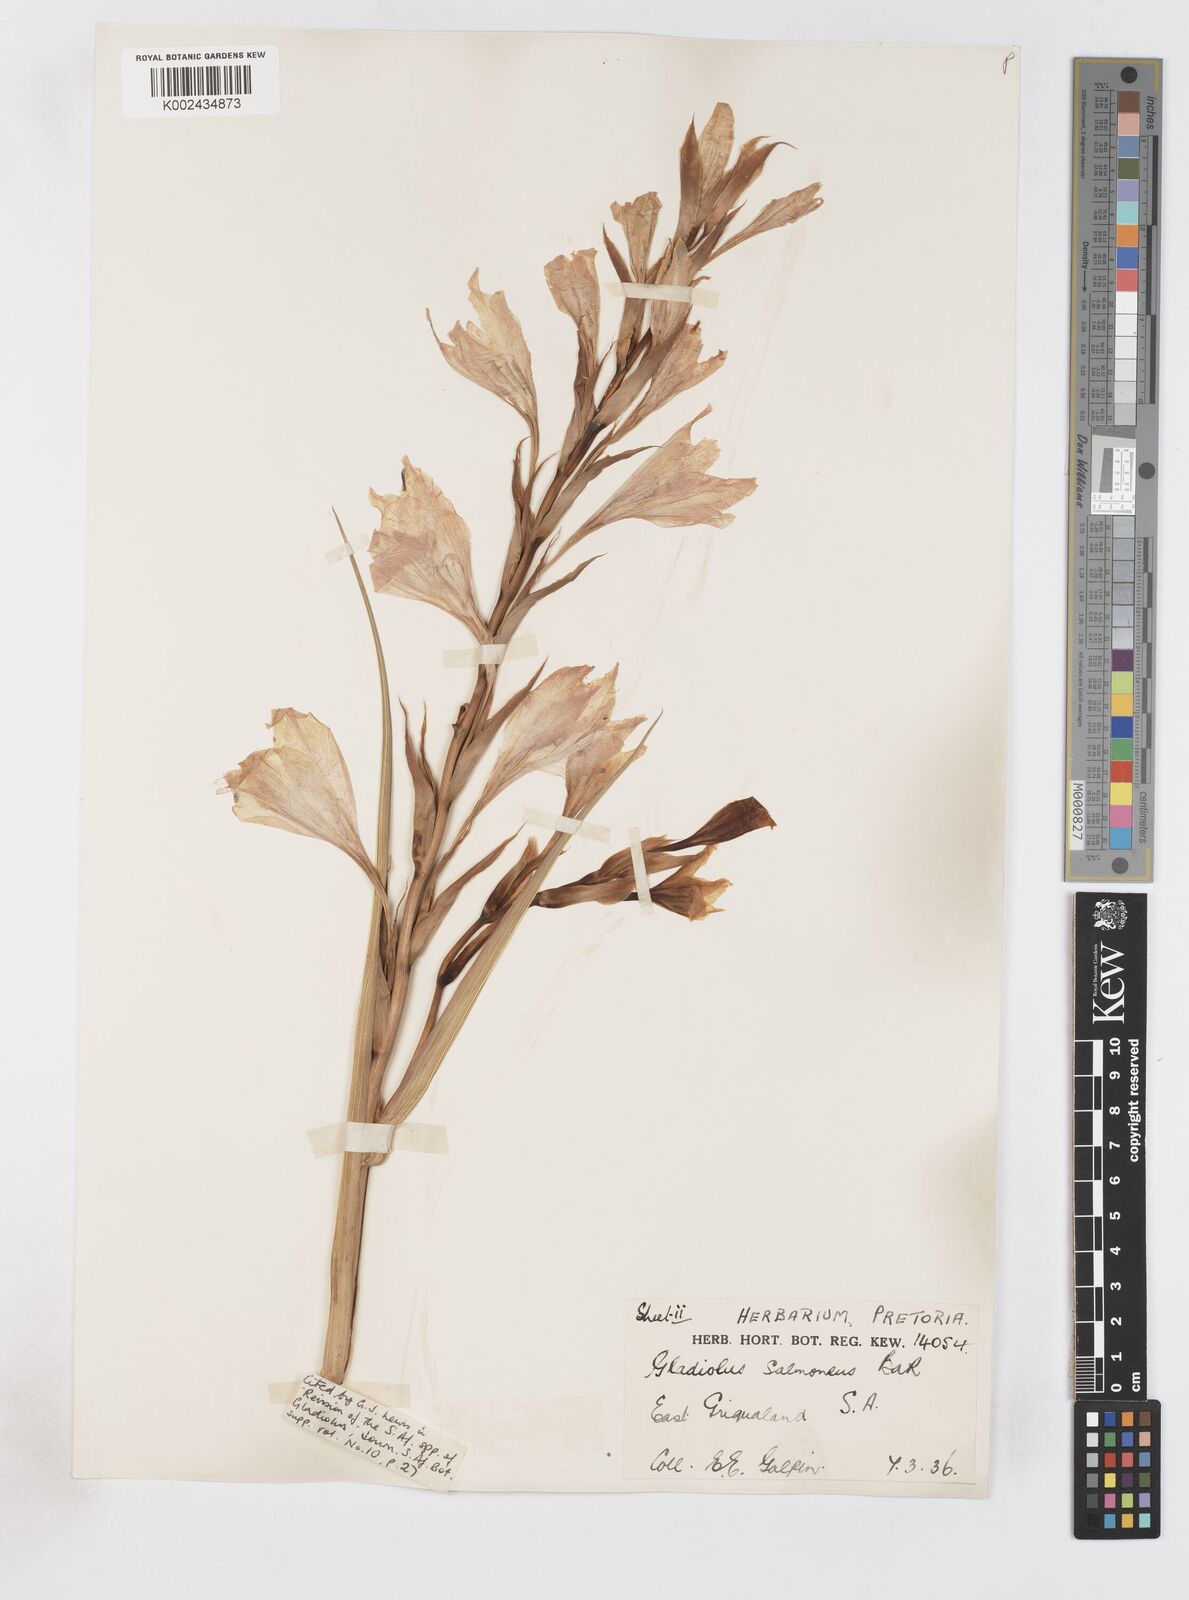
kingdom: Plantae
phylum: Tracheophyta
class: Liliopsida
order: Asparagales
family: Iridaceae
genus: Gladiolus
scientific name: Gladiolus oppositiflorus
